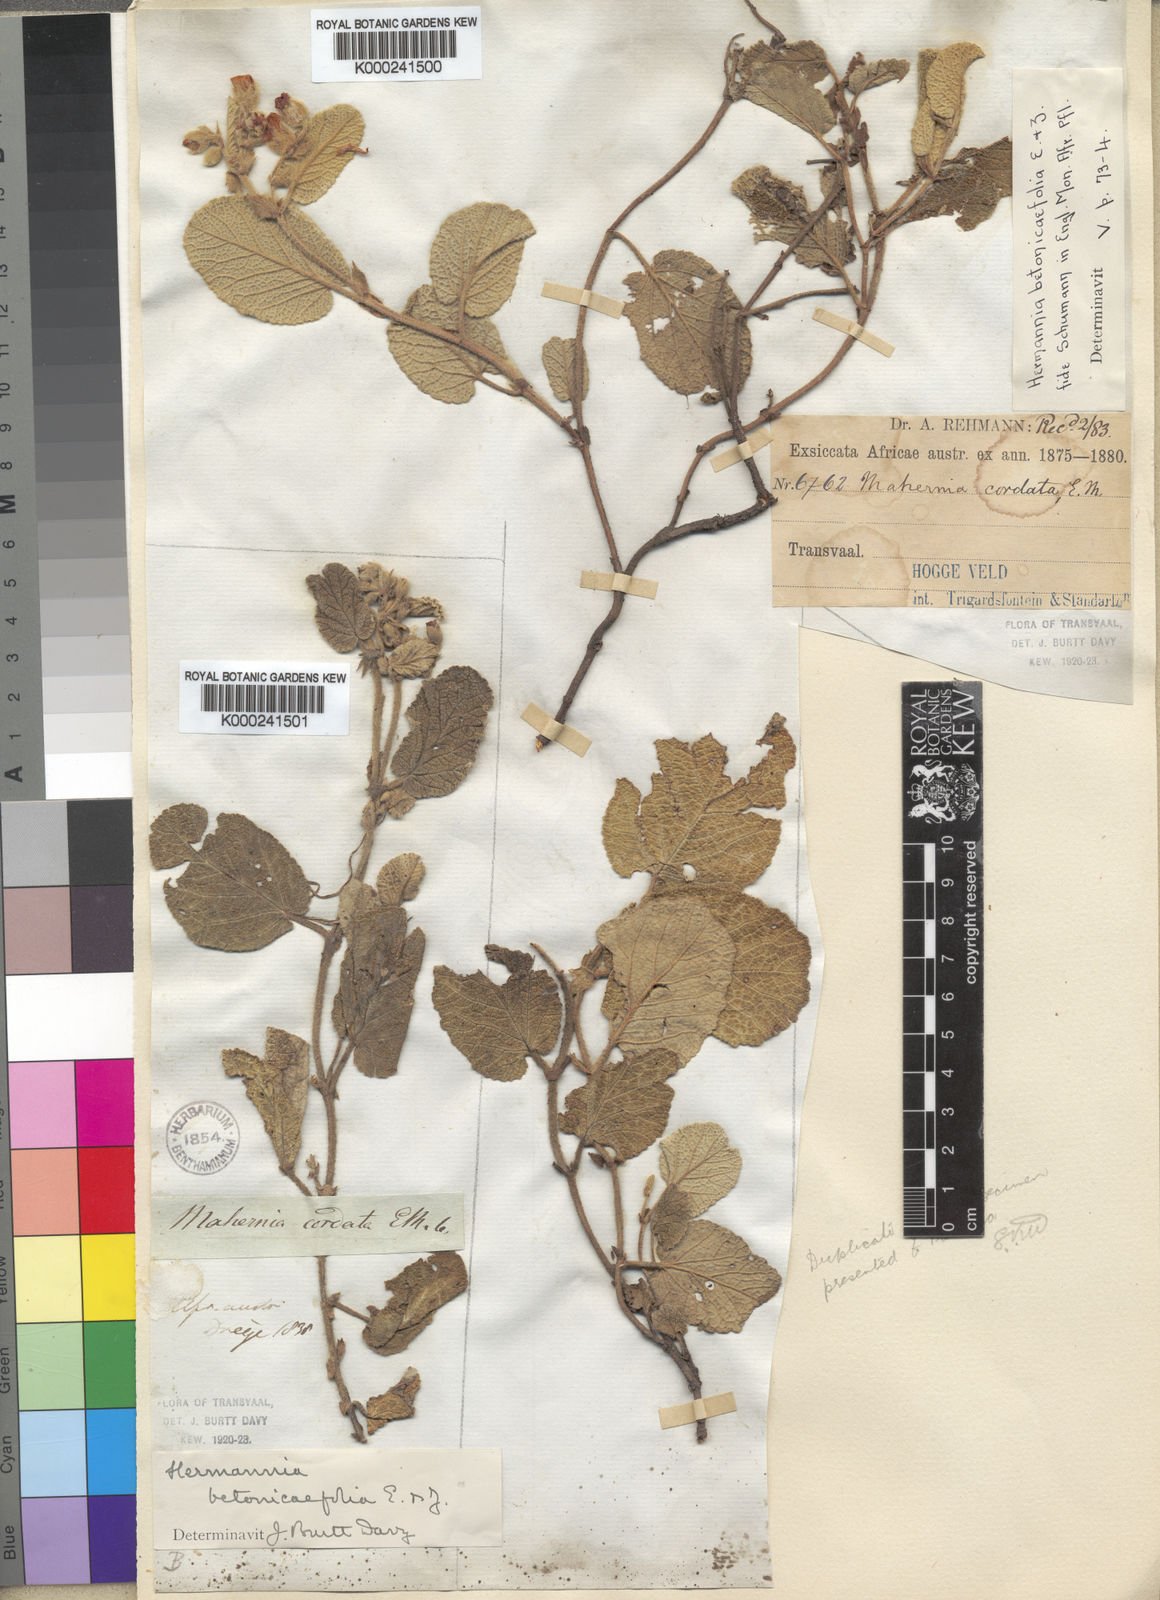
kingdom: Plantae
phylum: Tracheophyta
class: Magnoliopsida
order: Malvales
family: Malvaceae
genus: Hermannia
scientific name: Hermannia geniculata
